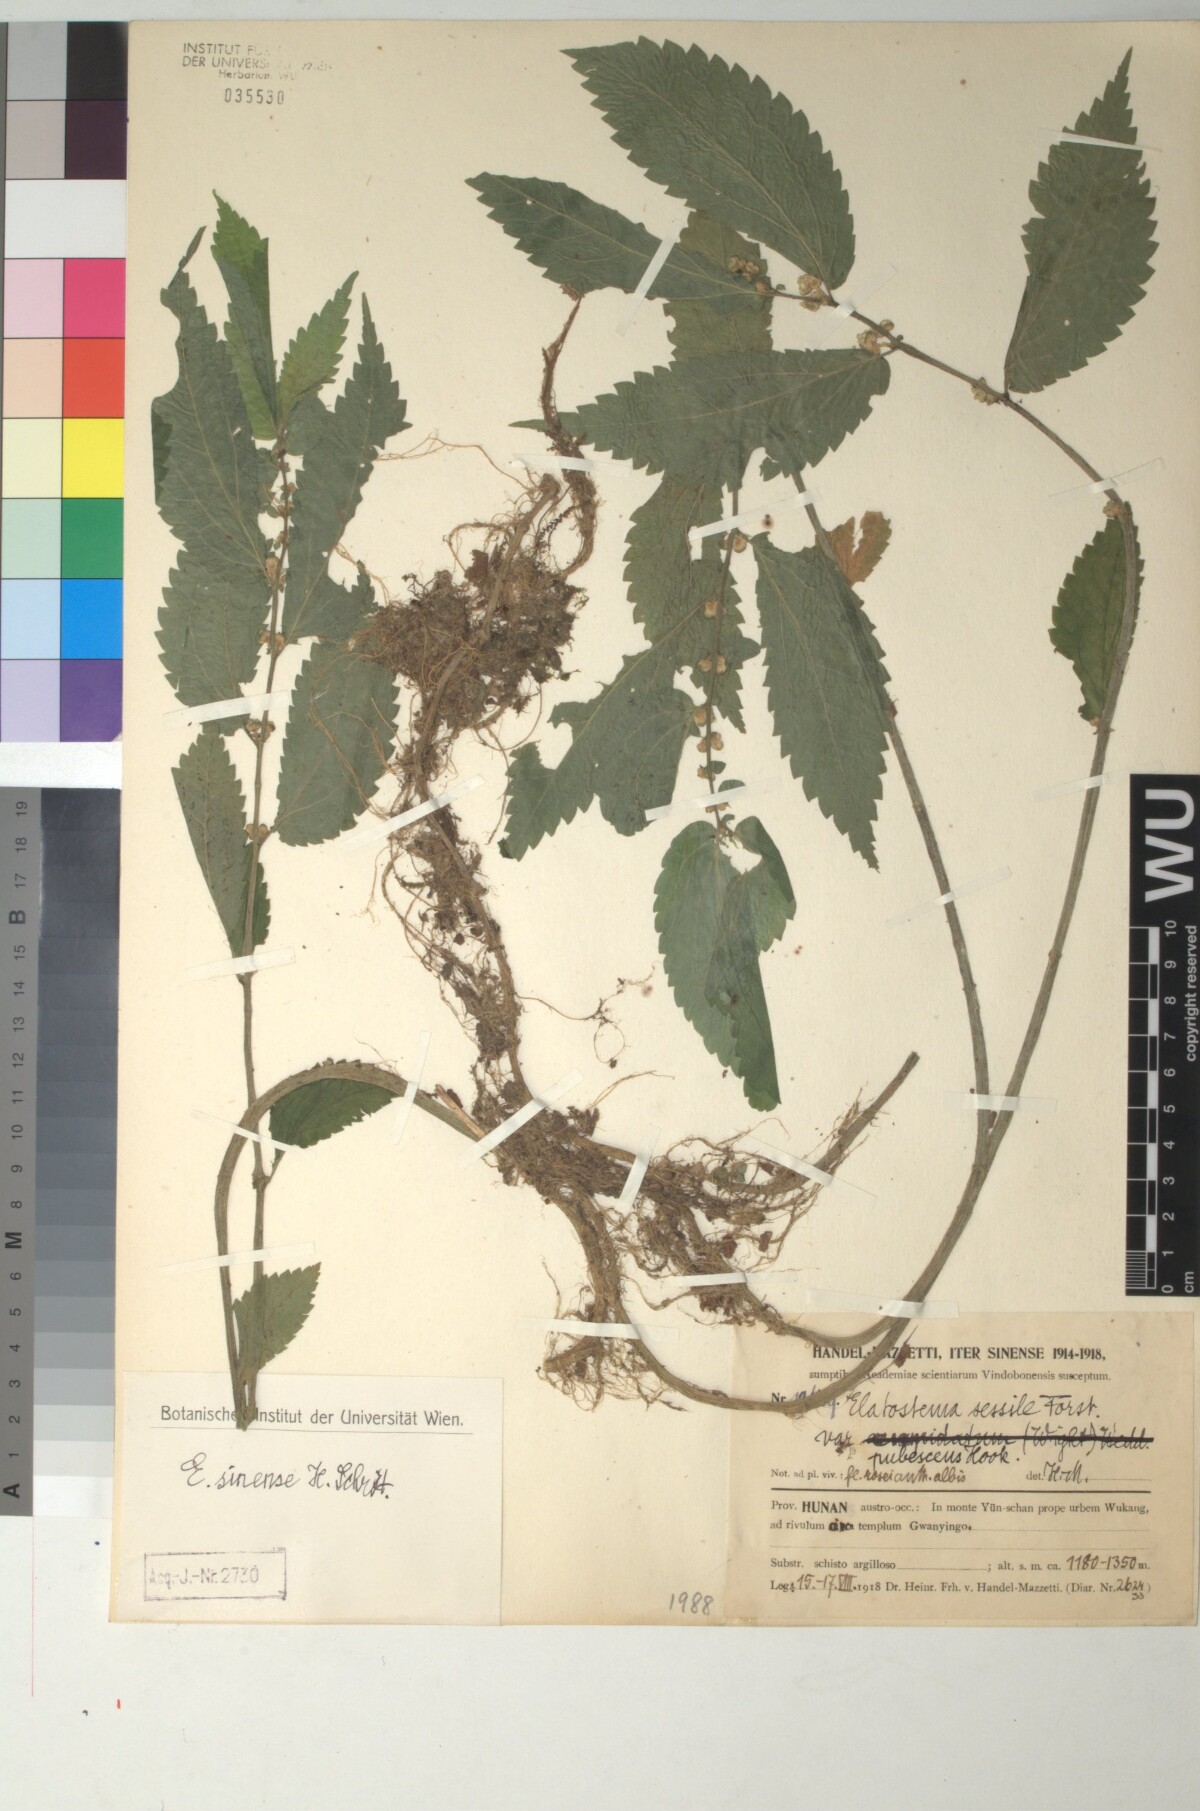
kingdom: Plantae
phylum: Tracheophyta
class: Magnoliopsida
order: Rosales
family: Urticaceae
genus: Elatostema
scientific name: Elatostema sinense
